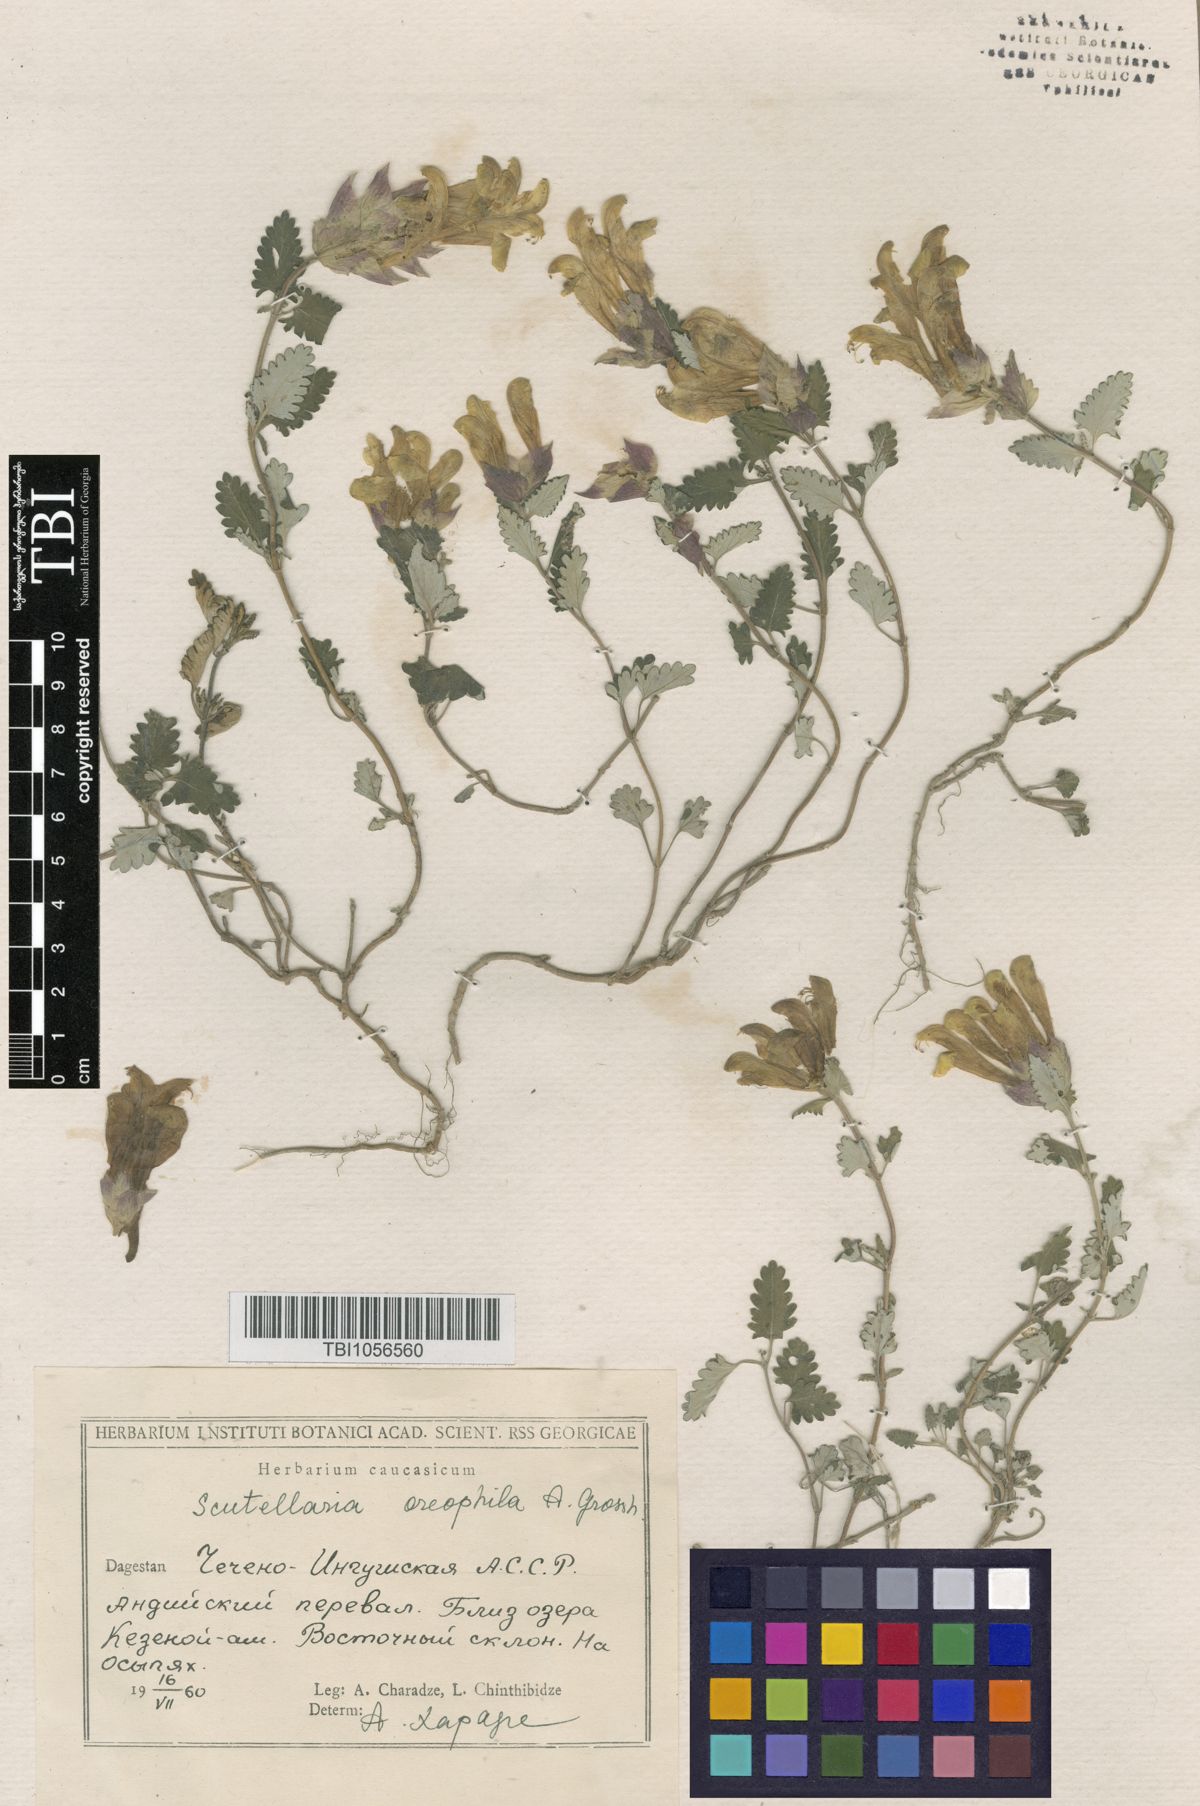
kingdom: Plantae
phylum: Tracheophyta
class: Magnoliopsida
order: Lamiales
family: Lamiaceae
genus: Scutellaria
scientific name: Scutellaria oreophila
